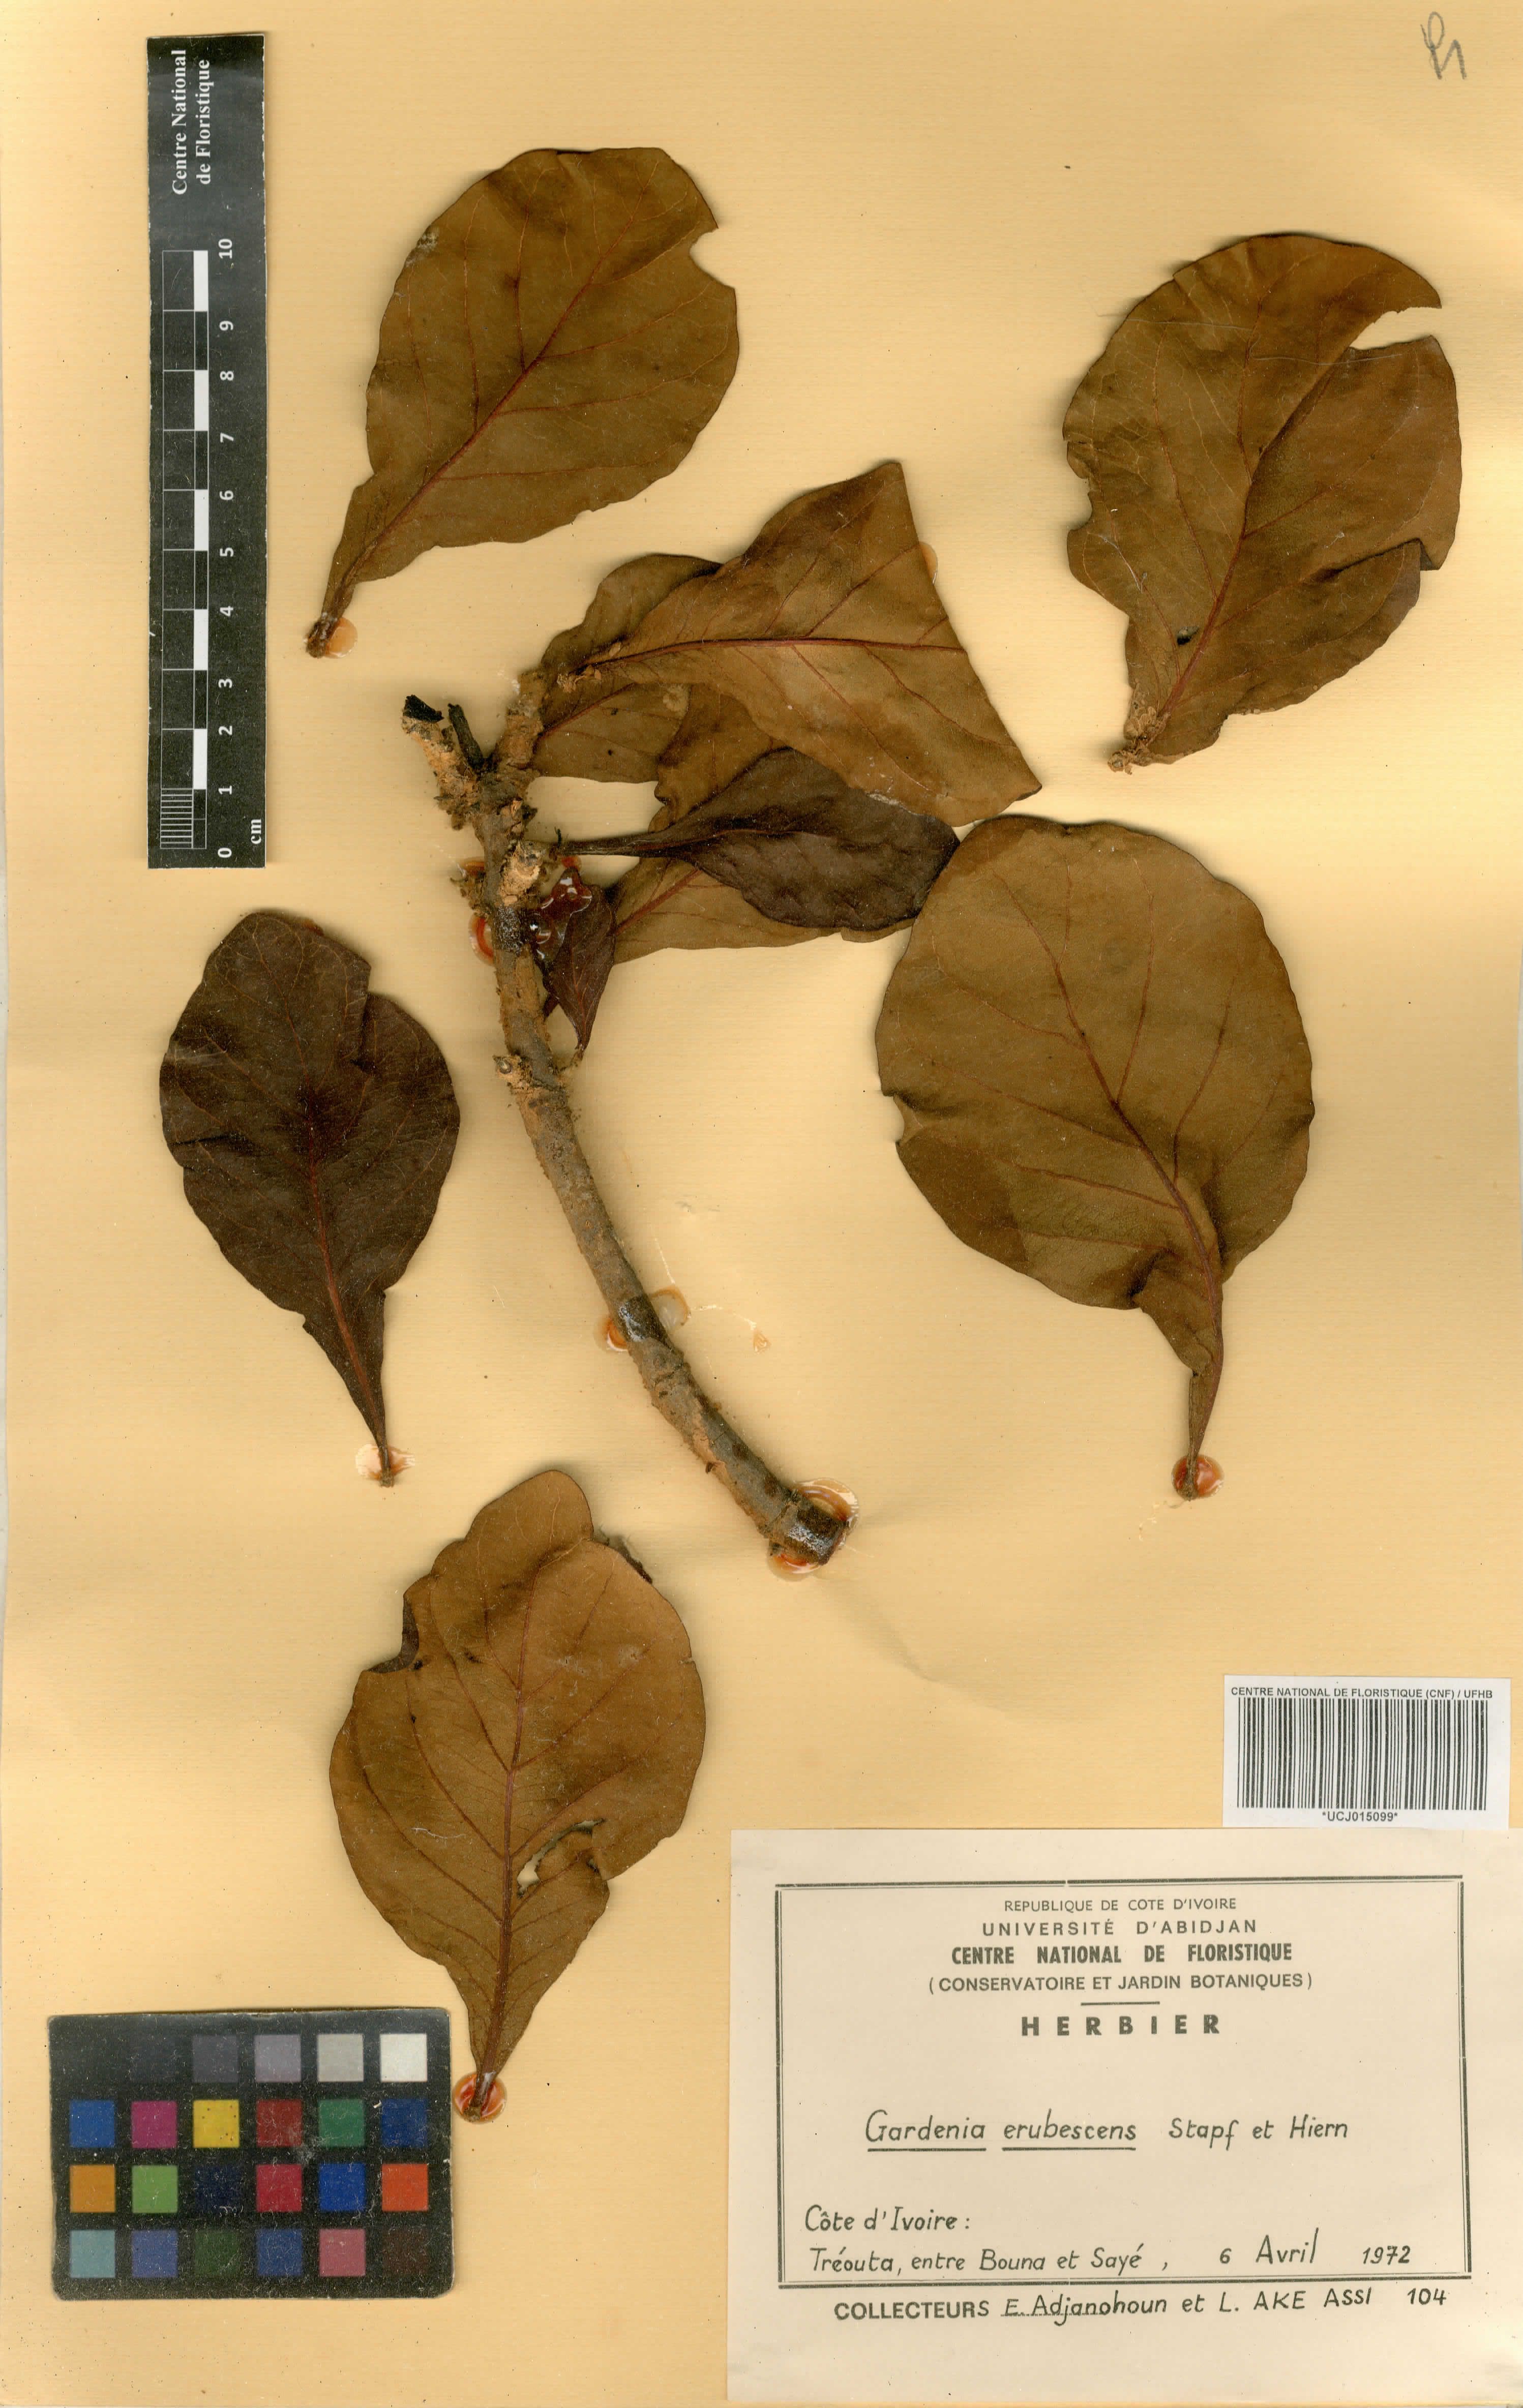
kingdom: Plantae
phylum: Tracheophyta
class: Magnoliopsida
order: Gentianales
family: Rubiaceae
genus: Gardenia
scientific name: Gardenia erubescens
